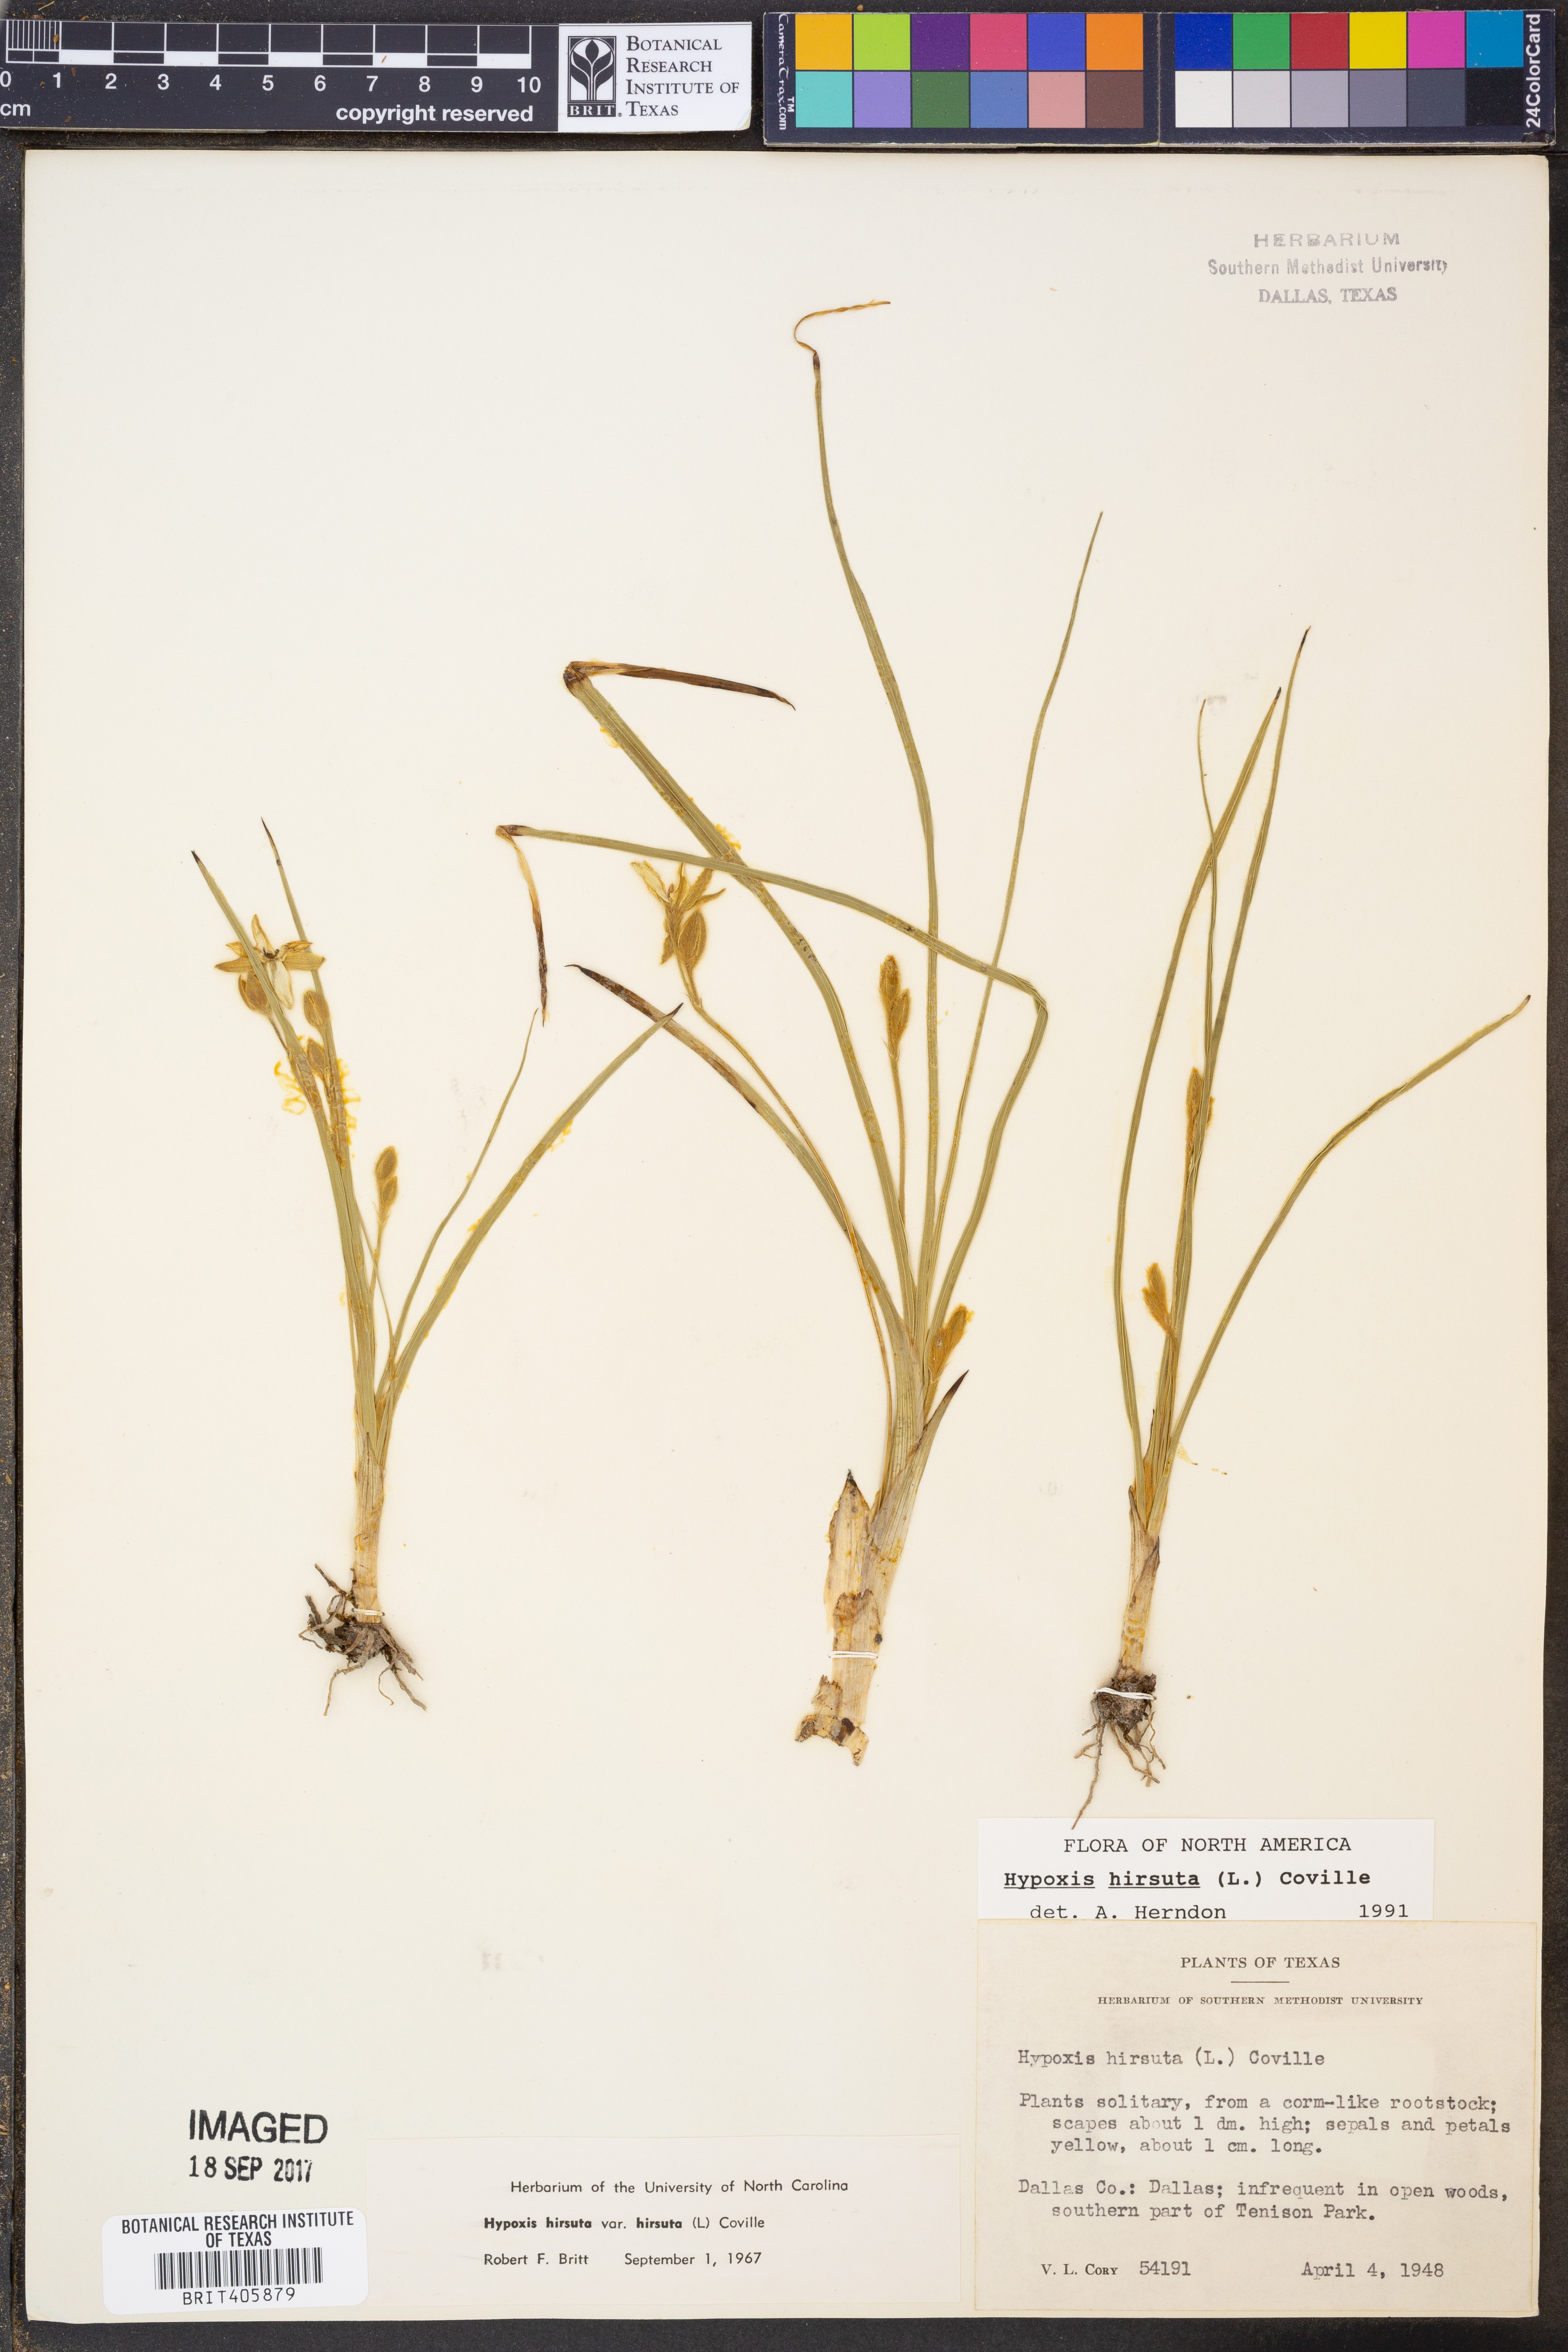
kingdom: Plantae
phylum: Tracheophyta
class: Liliopsida
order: Asparagales
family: Hypoxidaceae
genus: Hypoxis
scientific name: Hypoxis hirsuta
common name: Common goldstar
